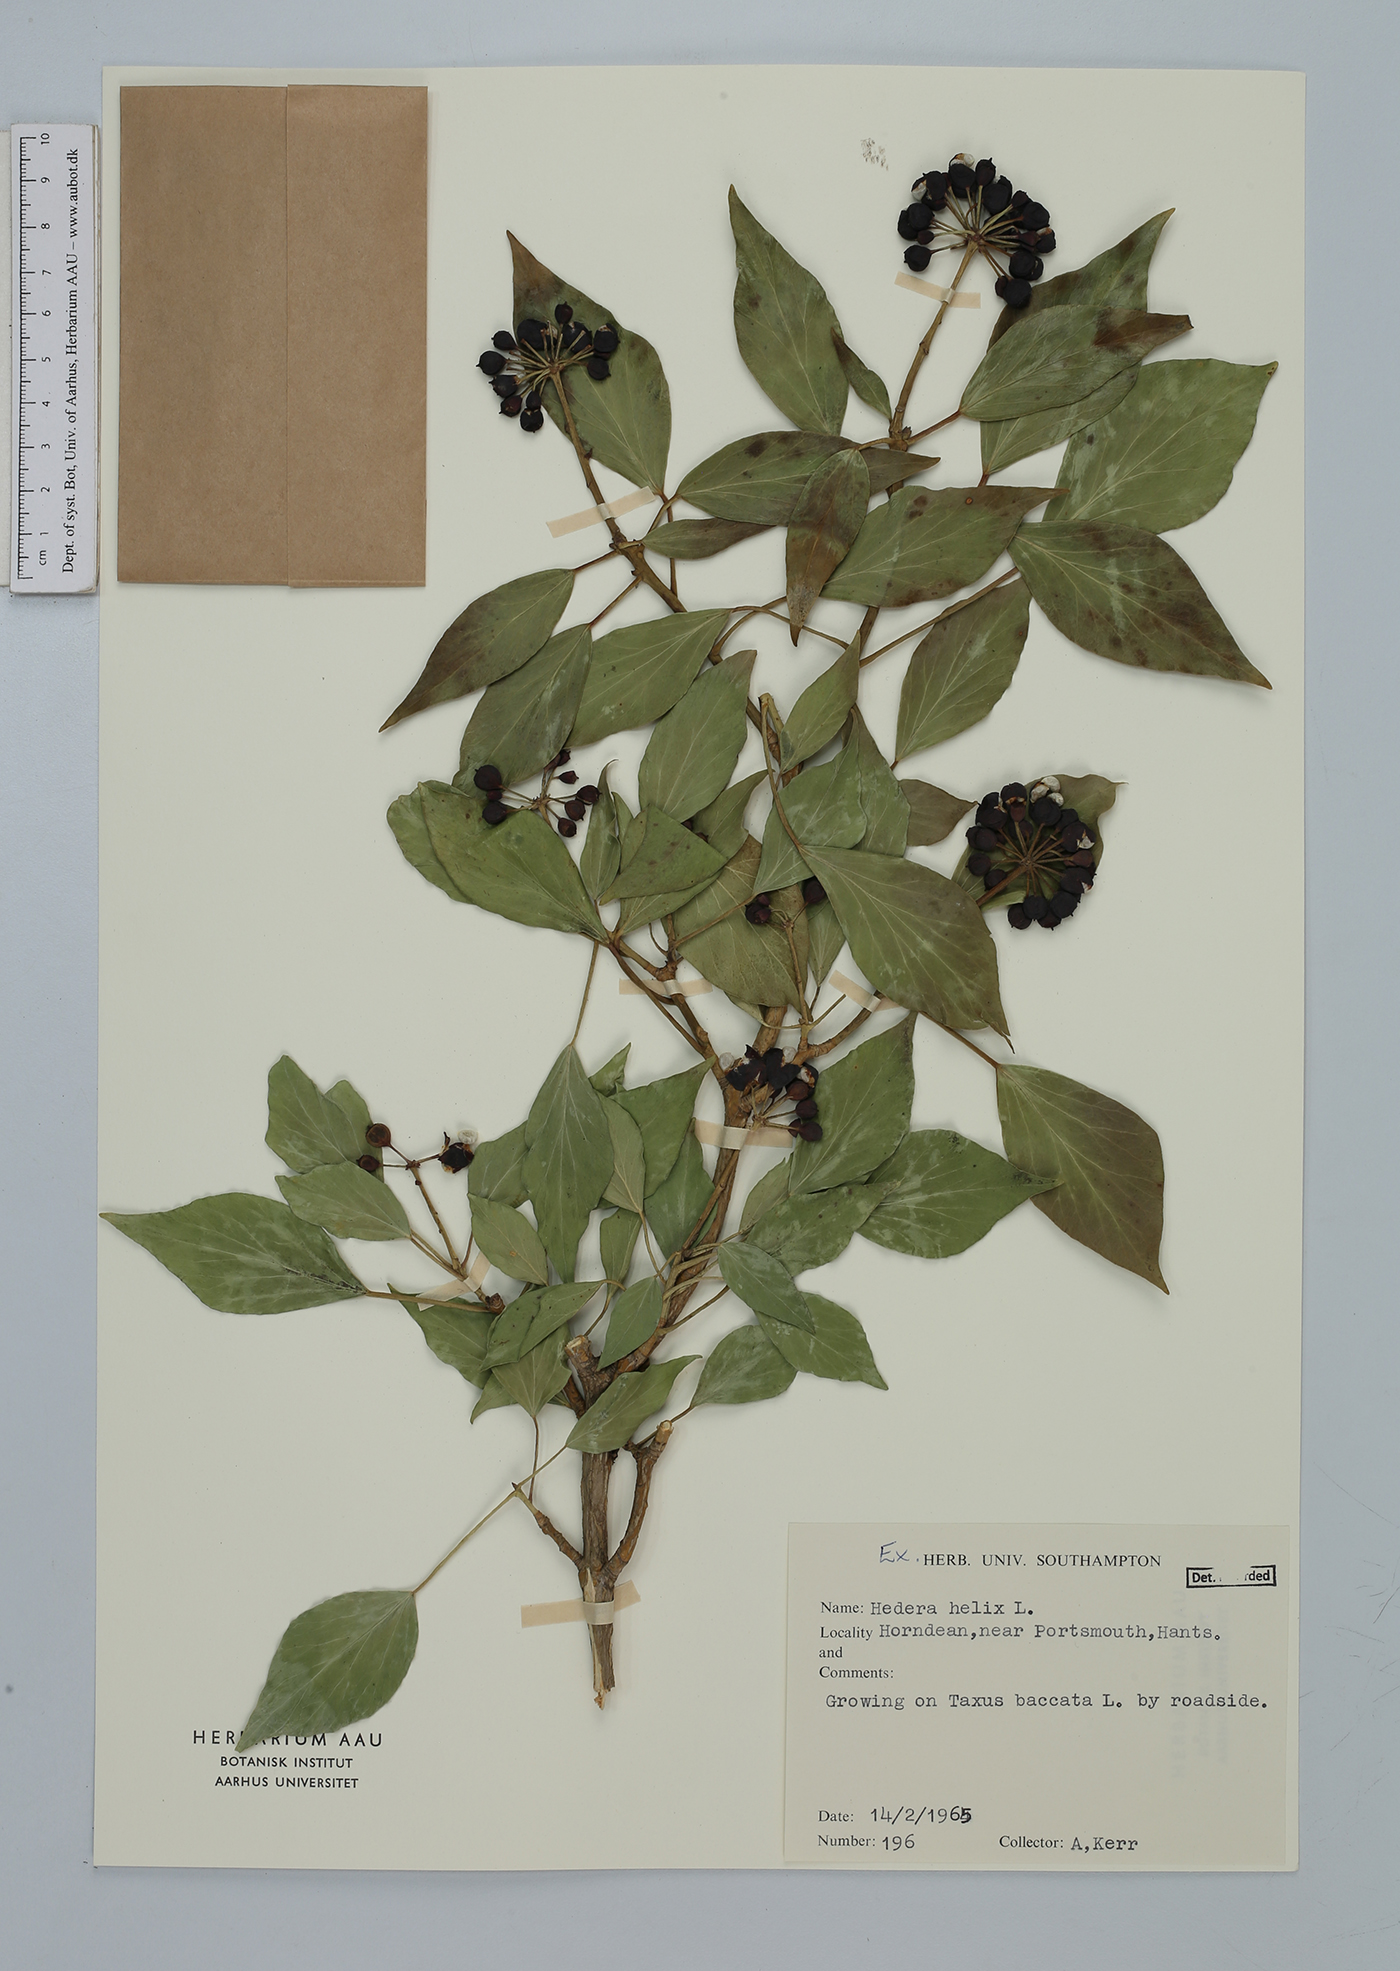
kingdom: Plantae
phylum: Tracheophyta
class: Magnoliopsida
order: Apiales
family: Araliaceae
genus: Hedera
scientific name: Hedera helix
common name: Ivy
